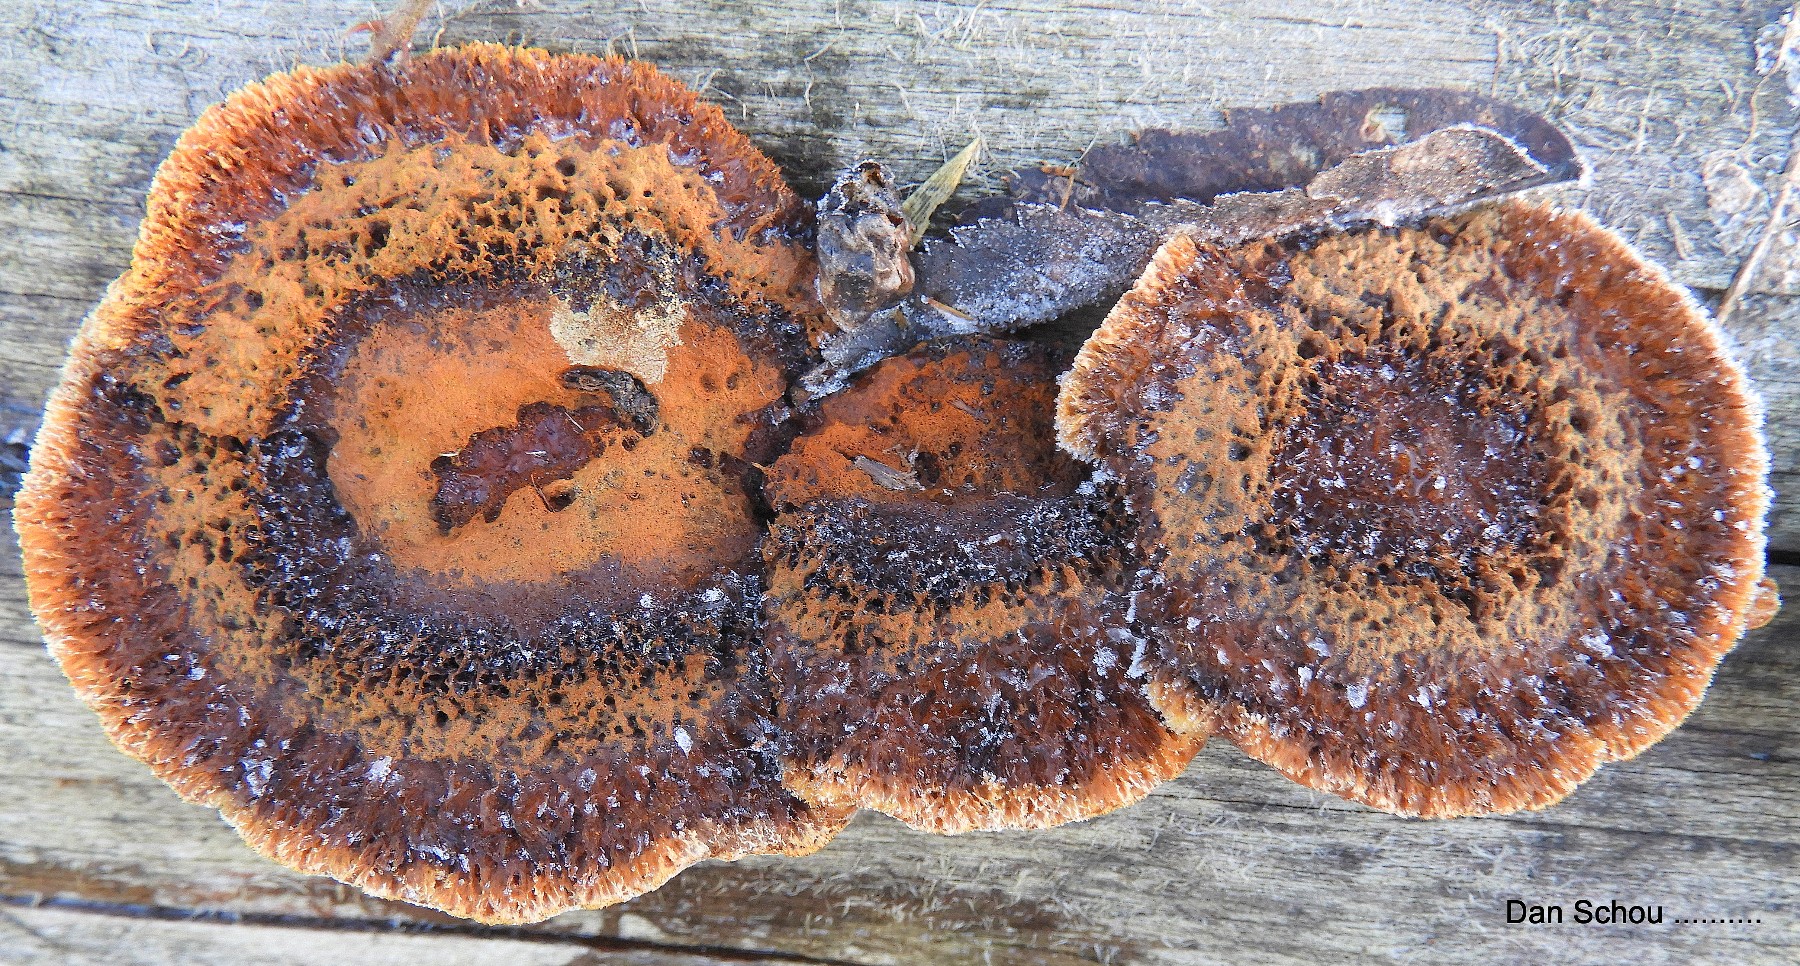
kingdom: Fungi
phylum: Basidiomycota
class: Agaricomycetes
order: Gloeophyllales
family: Gloeophyllaceae
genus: Gloeophyllum
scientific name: Gloeophyllum sepiarium
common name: fyrre-korkhat
